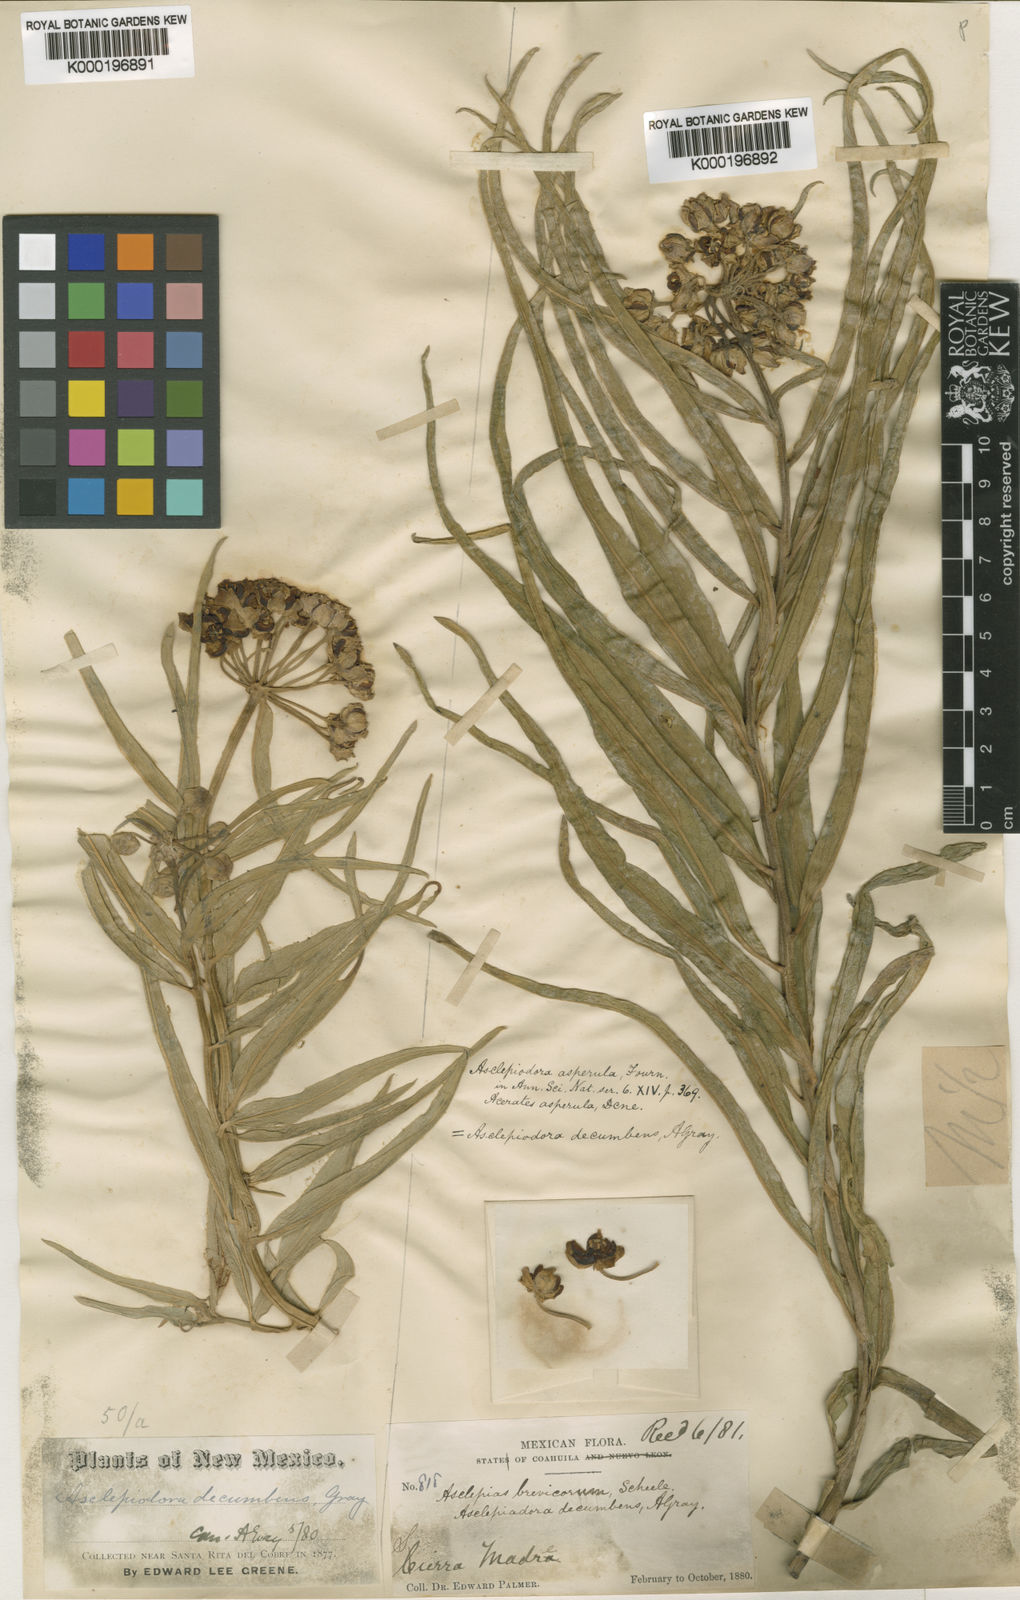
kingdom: Plantae
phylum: Tracheophyta
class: Magnoliopsida
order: Gentianales
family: Apocynaceae
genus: Asclepias
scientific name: Asclepias asperula
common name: Antelope horns
